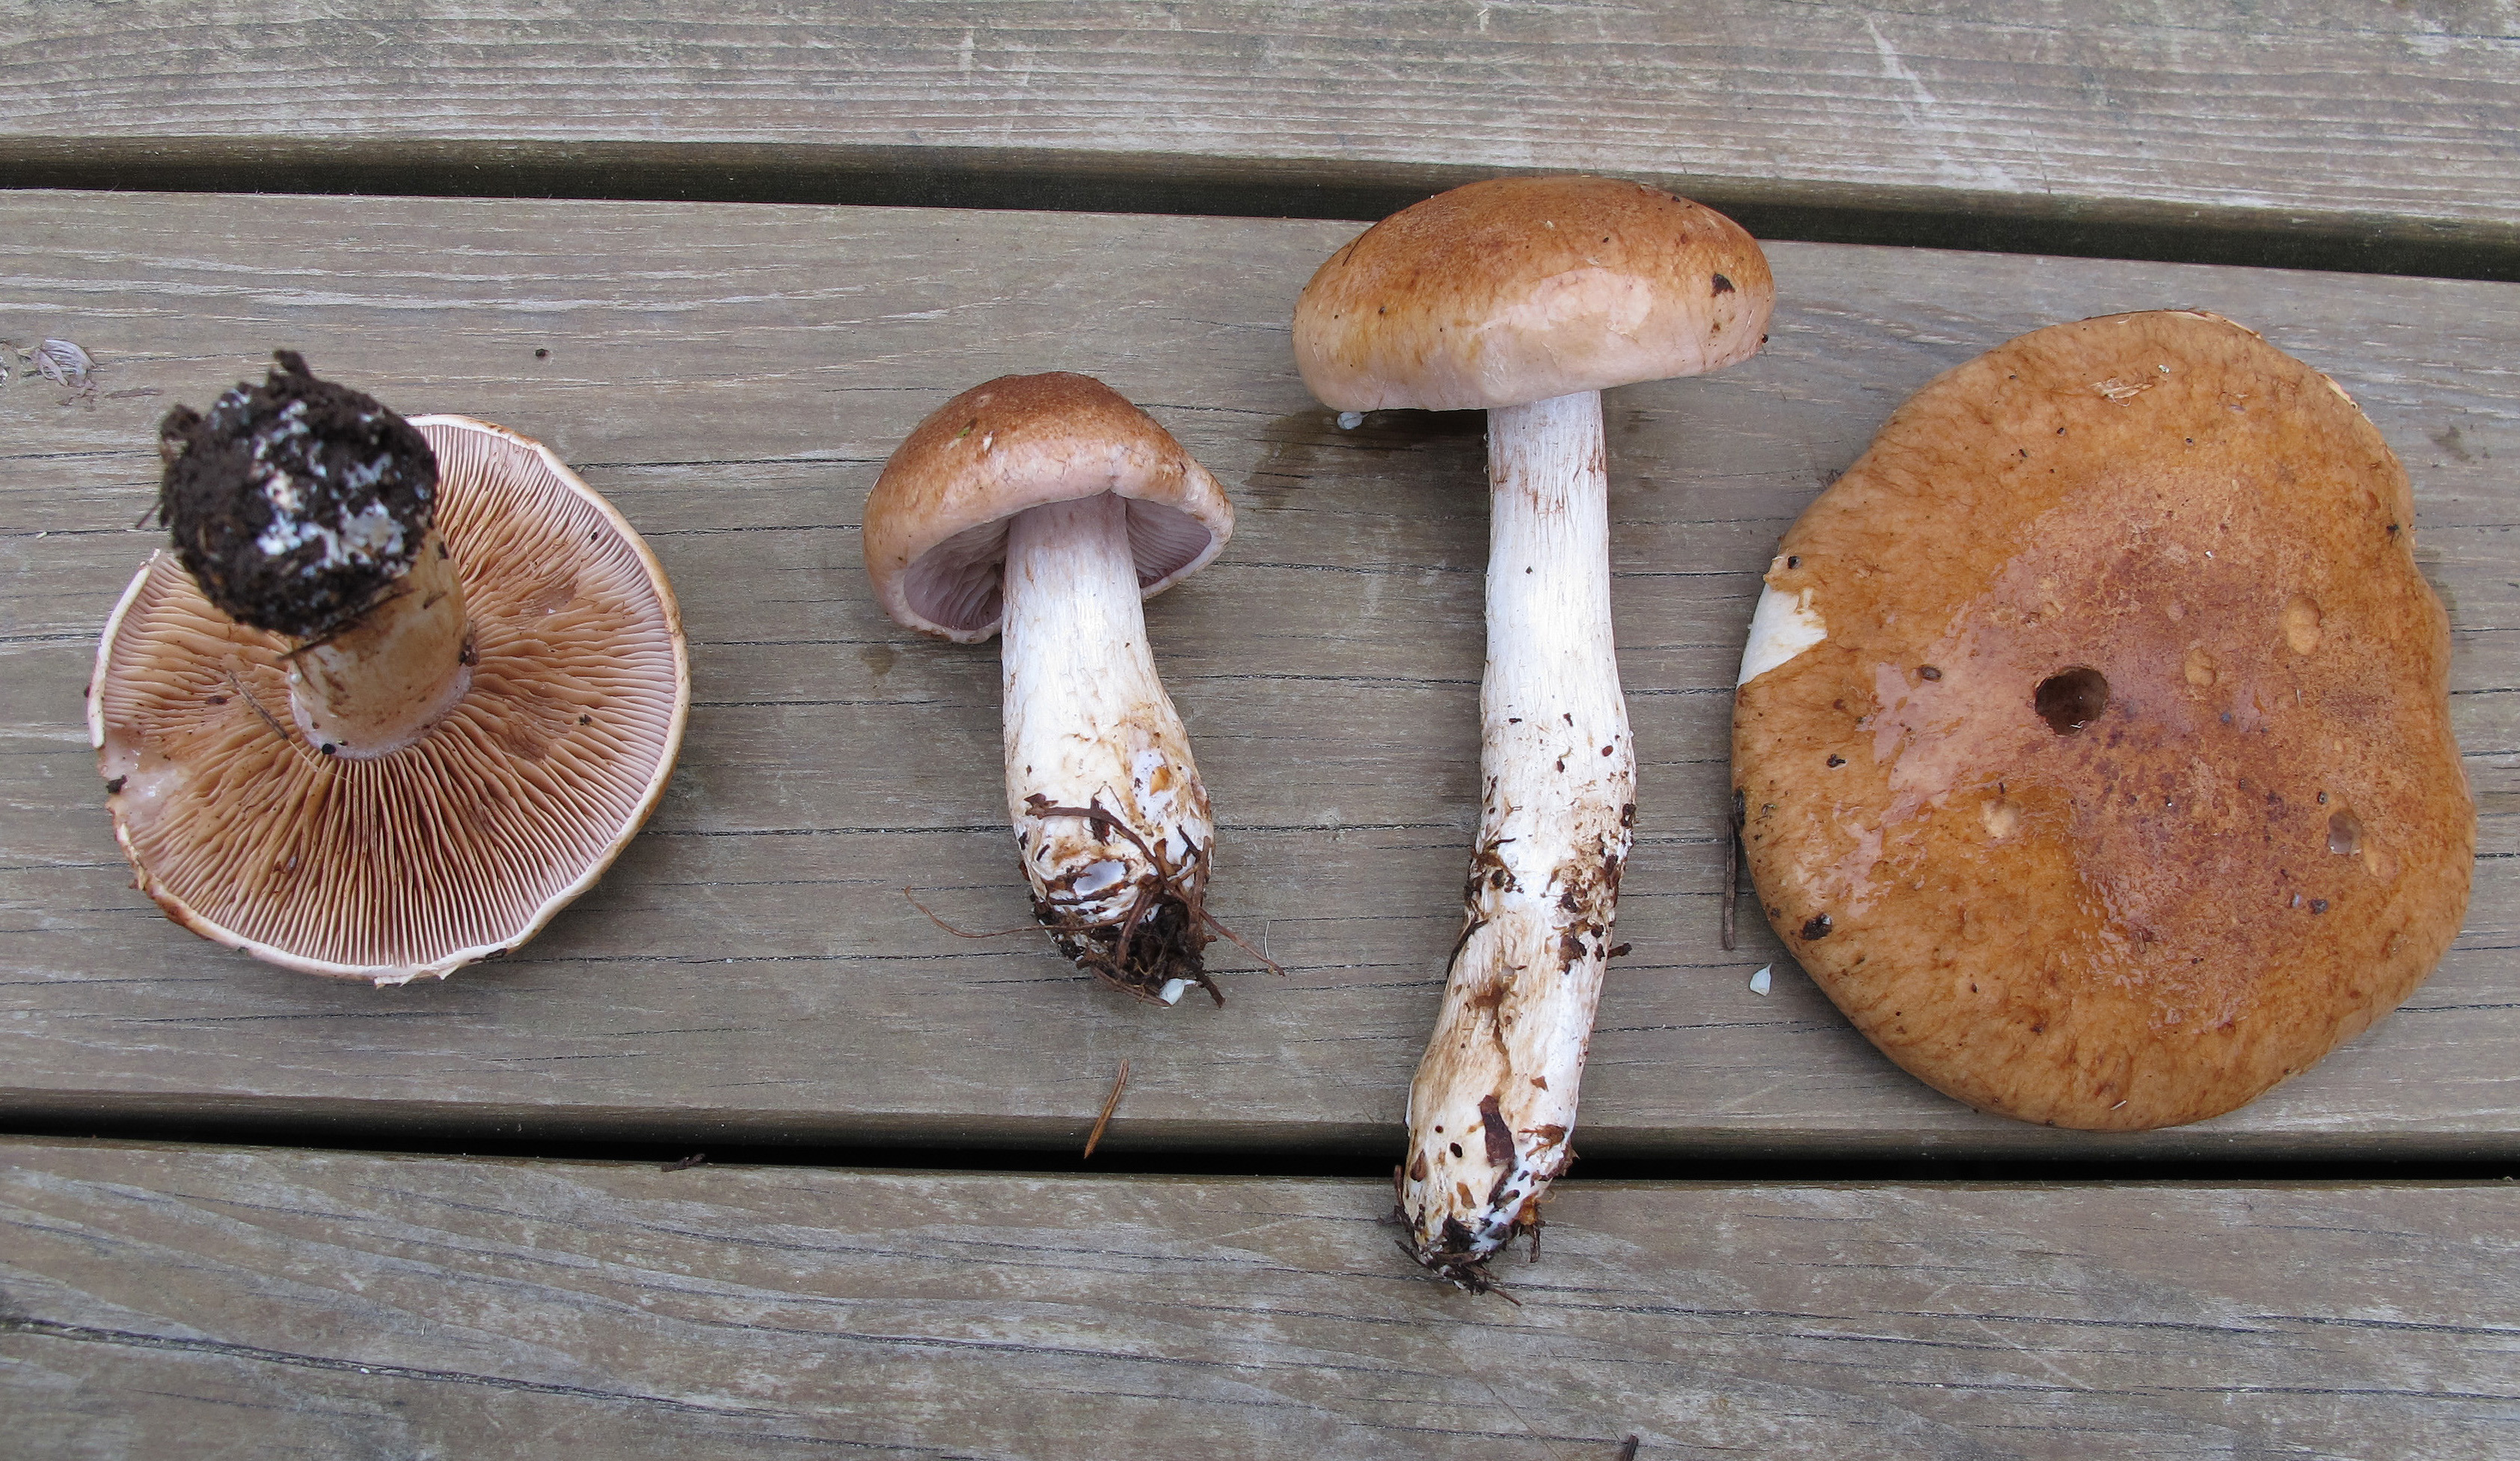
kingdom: Fungi
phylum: Basidiomycota
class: Agaricomycetes
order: Agaricales
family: Cortinariaceae
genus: Phlegmacium
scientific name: Phlegmacium balteatum
